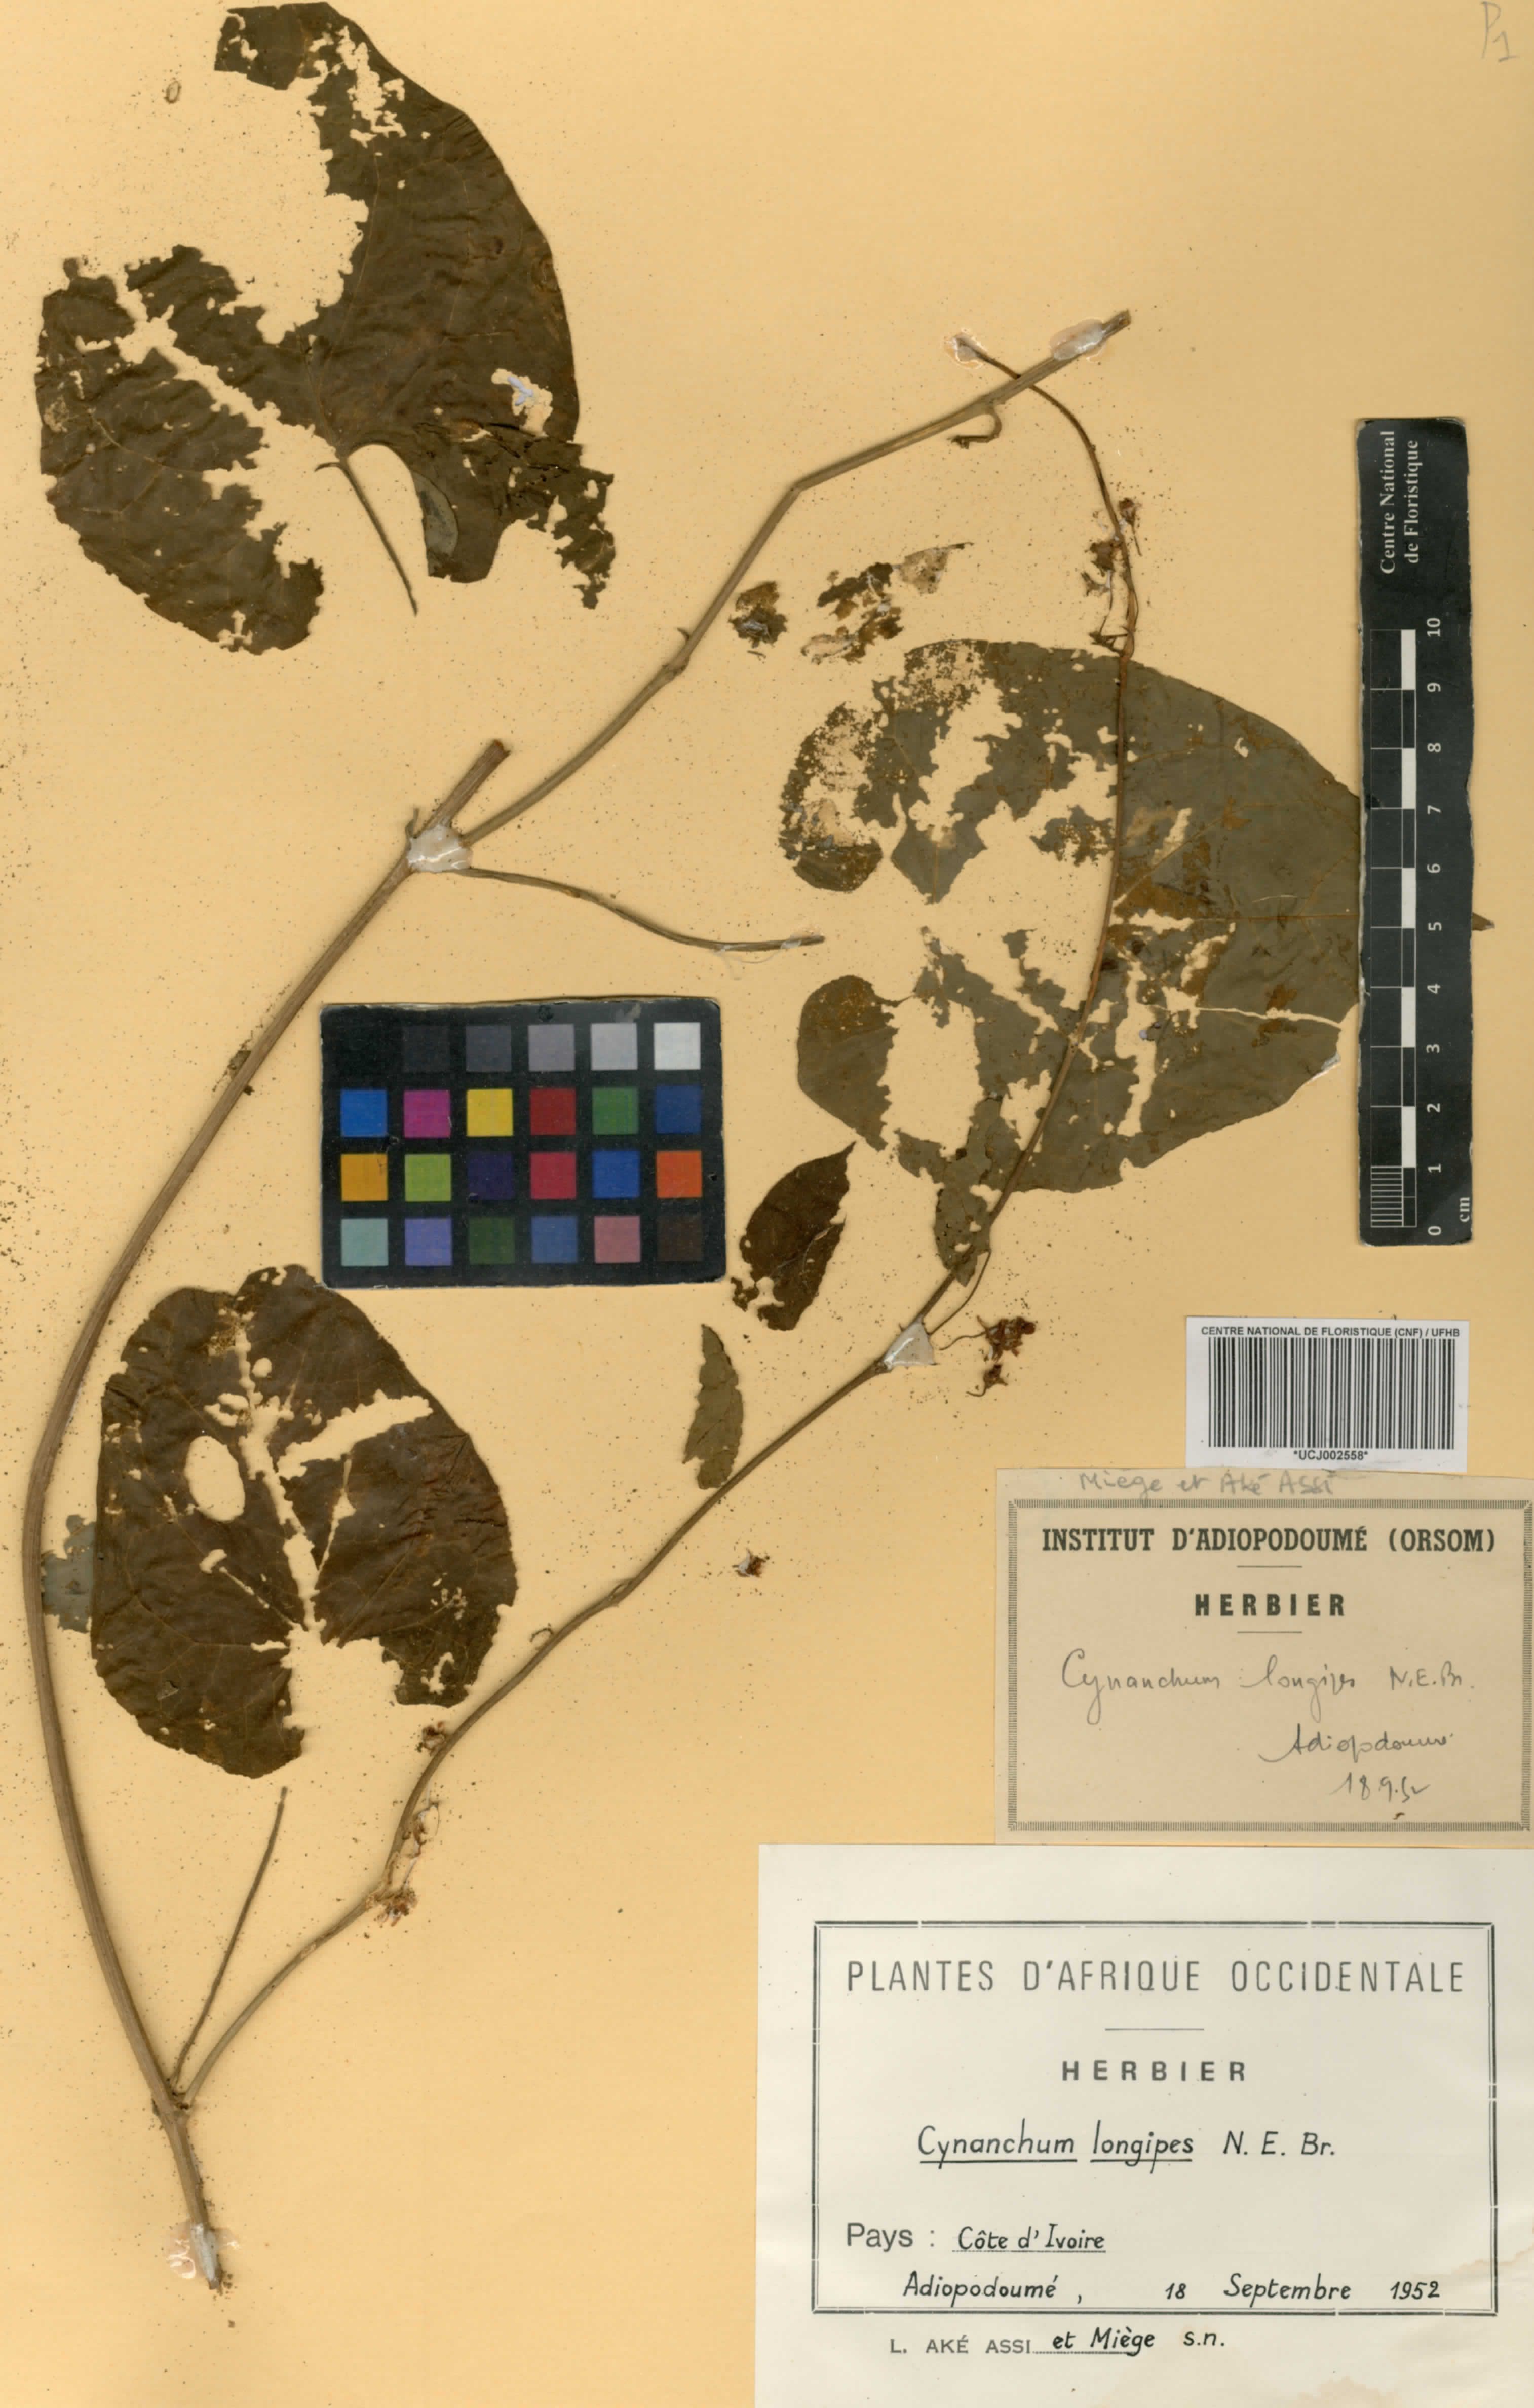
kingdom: Plantae
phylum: Tracheophyta
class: Magnoliopsida
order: Gentianales
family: Apocynaceae
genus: Cynanchum
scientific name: Cynanchum longipes
